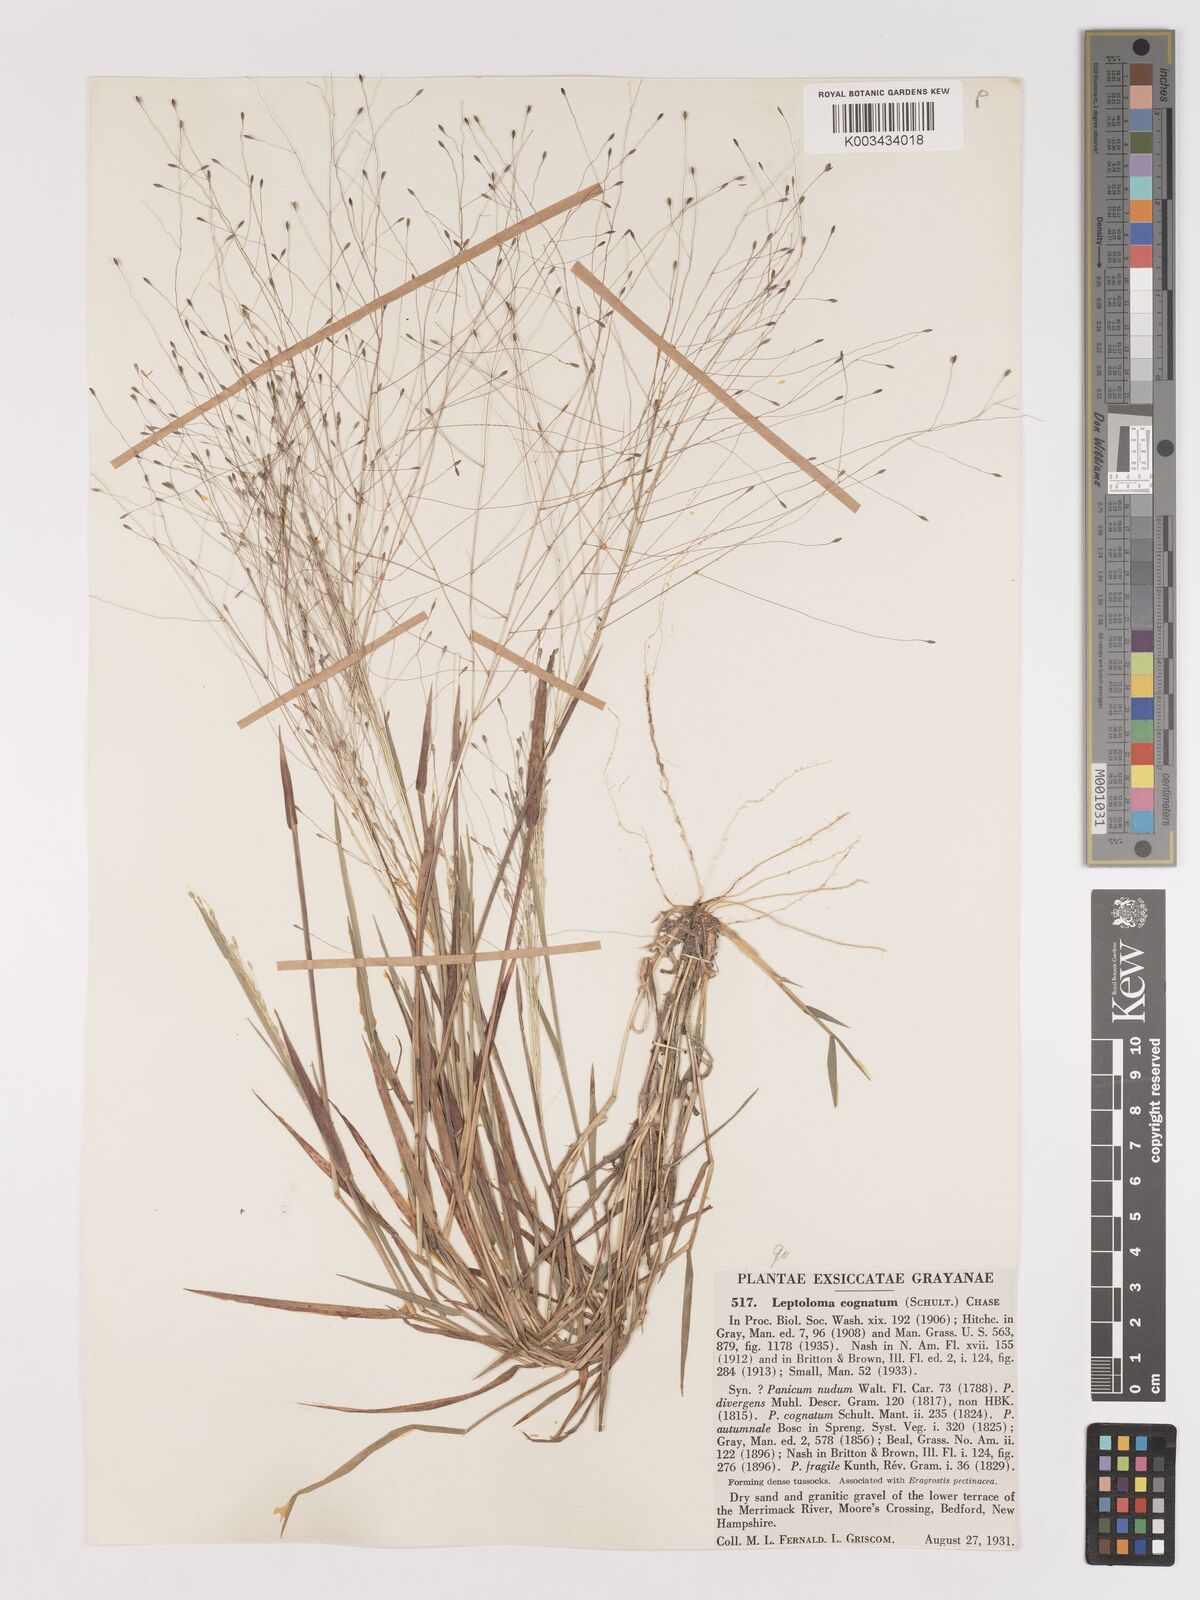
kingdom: Plantae
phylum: Tracheophyta
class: Liliopsida
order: Poales
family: Poaceae
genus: Digitaria
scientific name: Digitaria cognata
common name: Fall witchgrass
